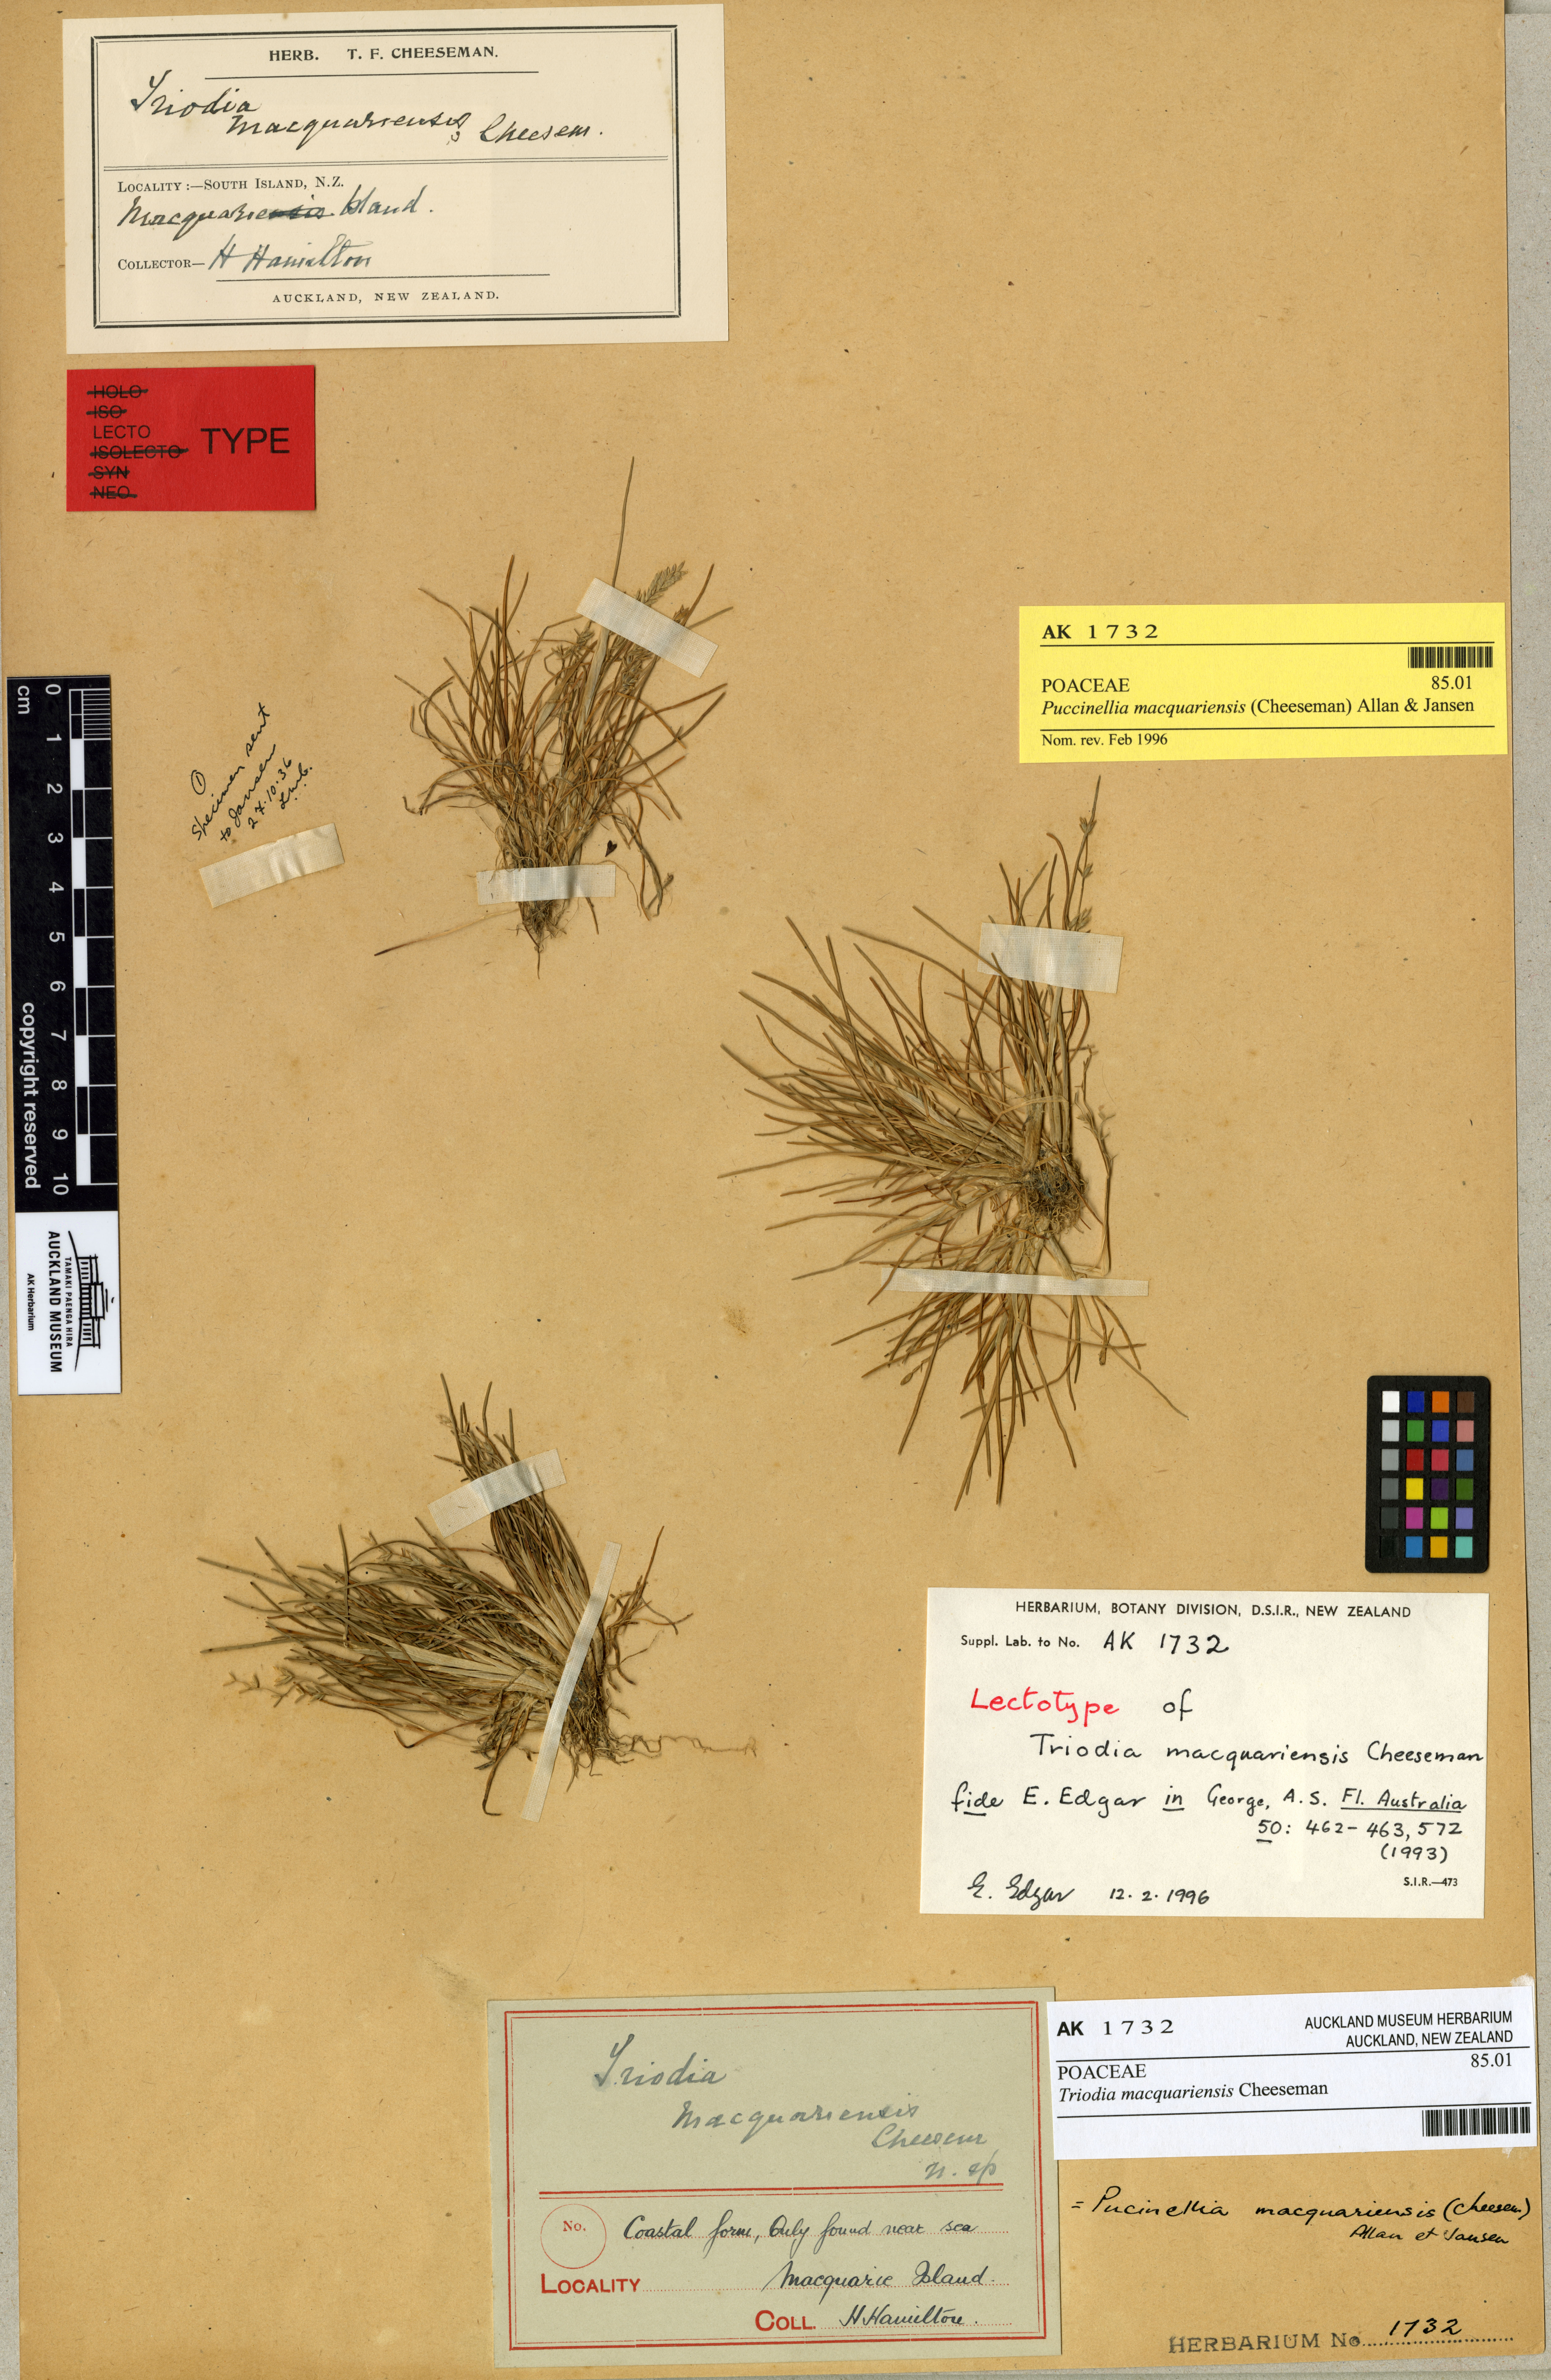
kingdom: Plantae
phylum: Tracheophyta
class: Liliopsida
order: Poales
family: Poaceae
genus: Puccinellia
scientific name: Puccinellia macquariensis
